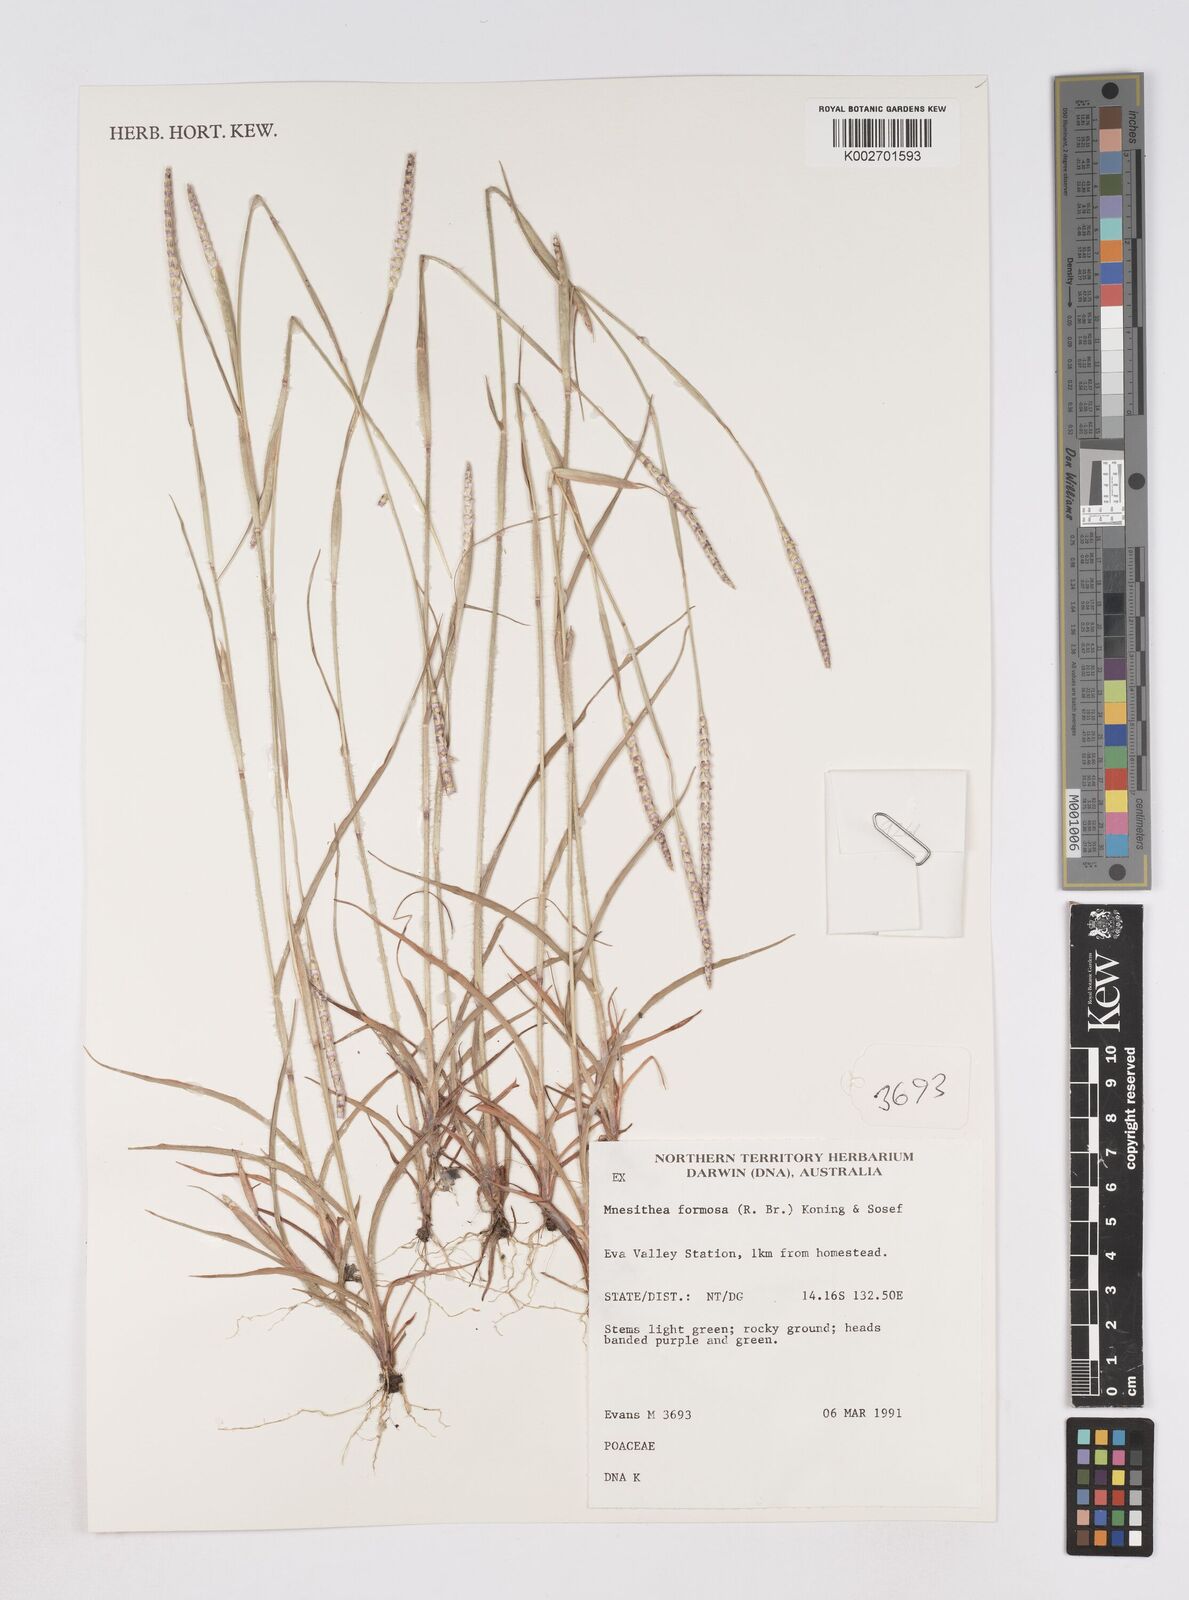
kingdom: Plantae
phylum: Tracheophyta
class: Liliopsida
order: Poales
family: Poaceae
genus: Heteropholis
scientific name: Heteropholis
